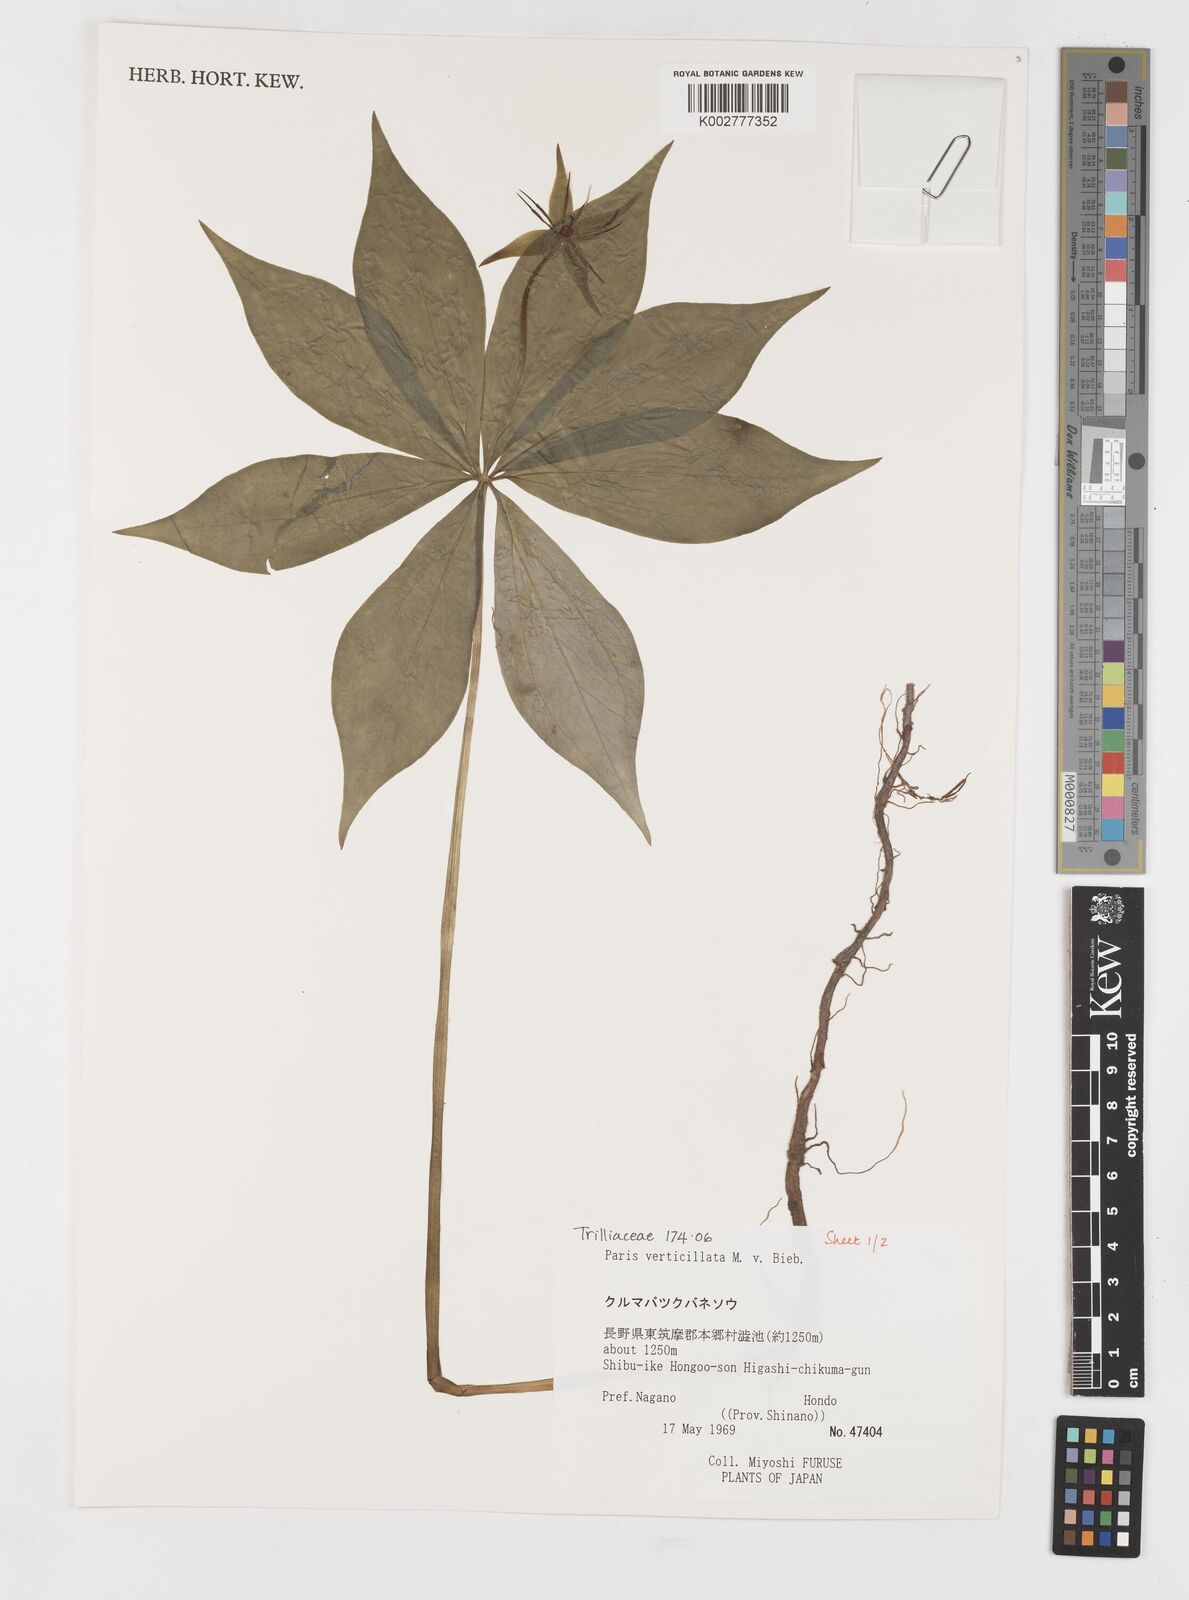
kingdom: Plantae
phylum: Tracheophyta
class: Liliopsida
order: Liliales
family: Melanthiaceae
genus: Paris
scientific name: Paris verticillata
